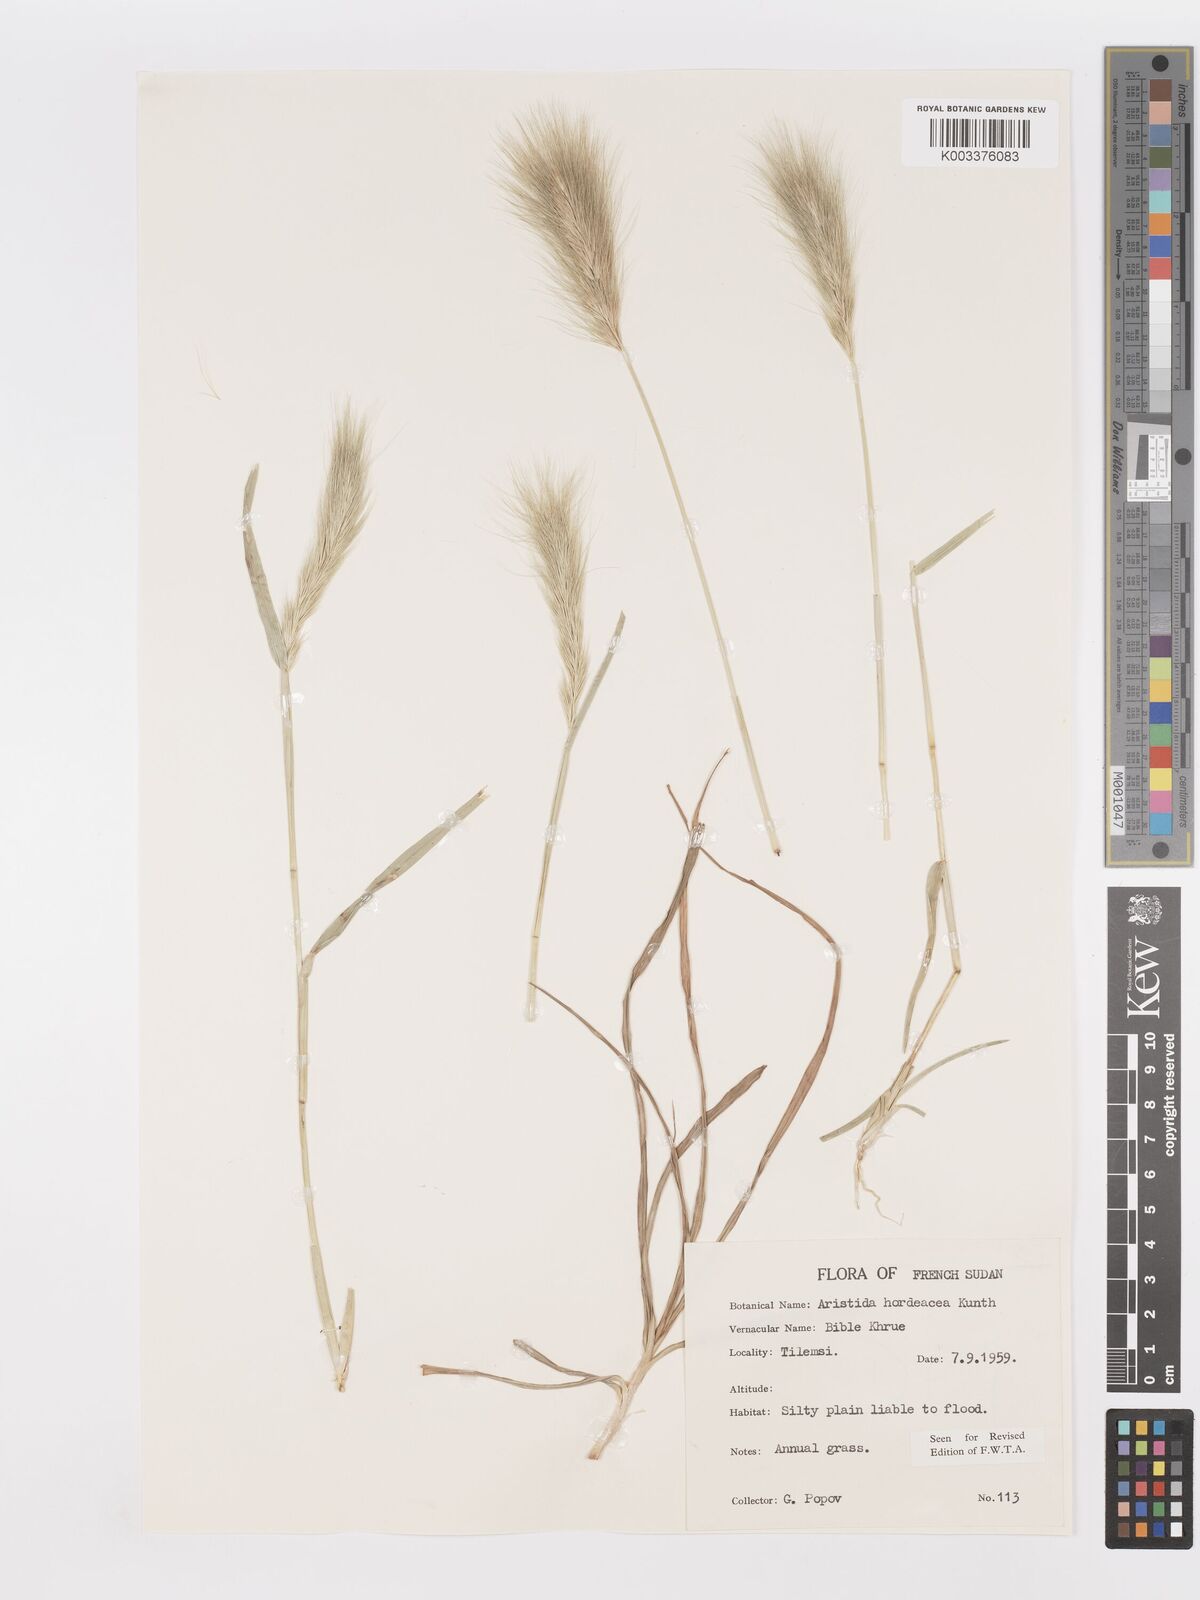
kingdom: Plantae
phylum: Tracheophyta
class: Liliopsida
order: Poales
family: Poaceae
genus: Aristida
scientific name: Aristida hordeacea
